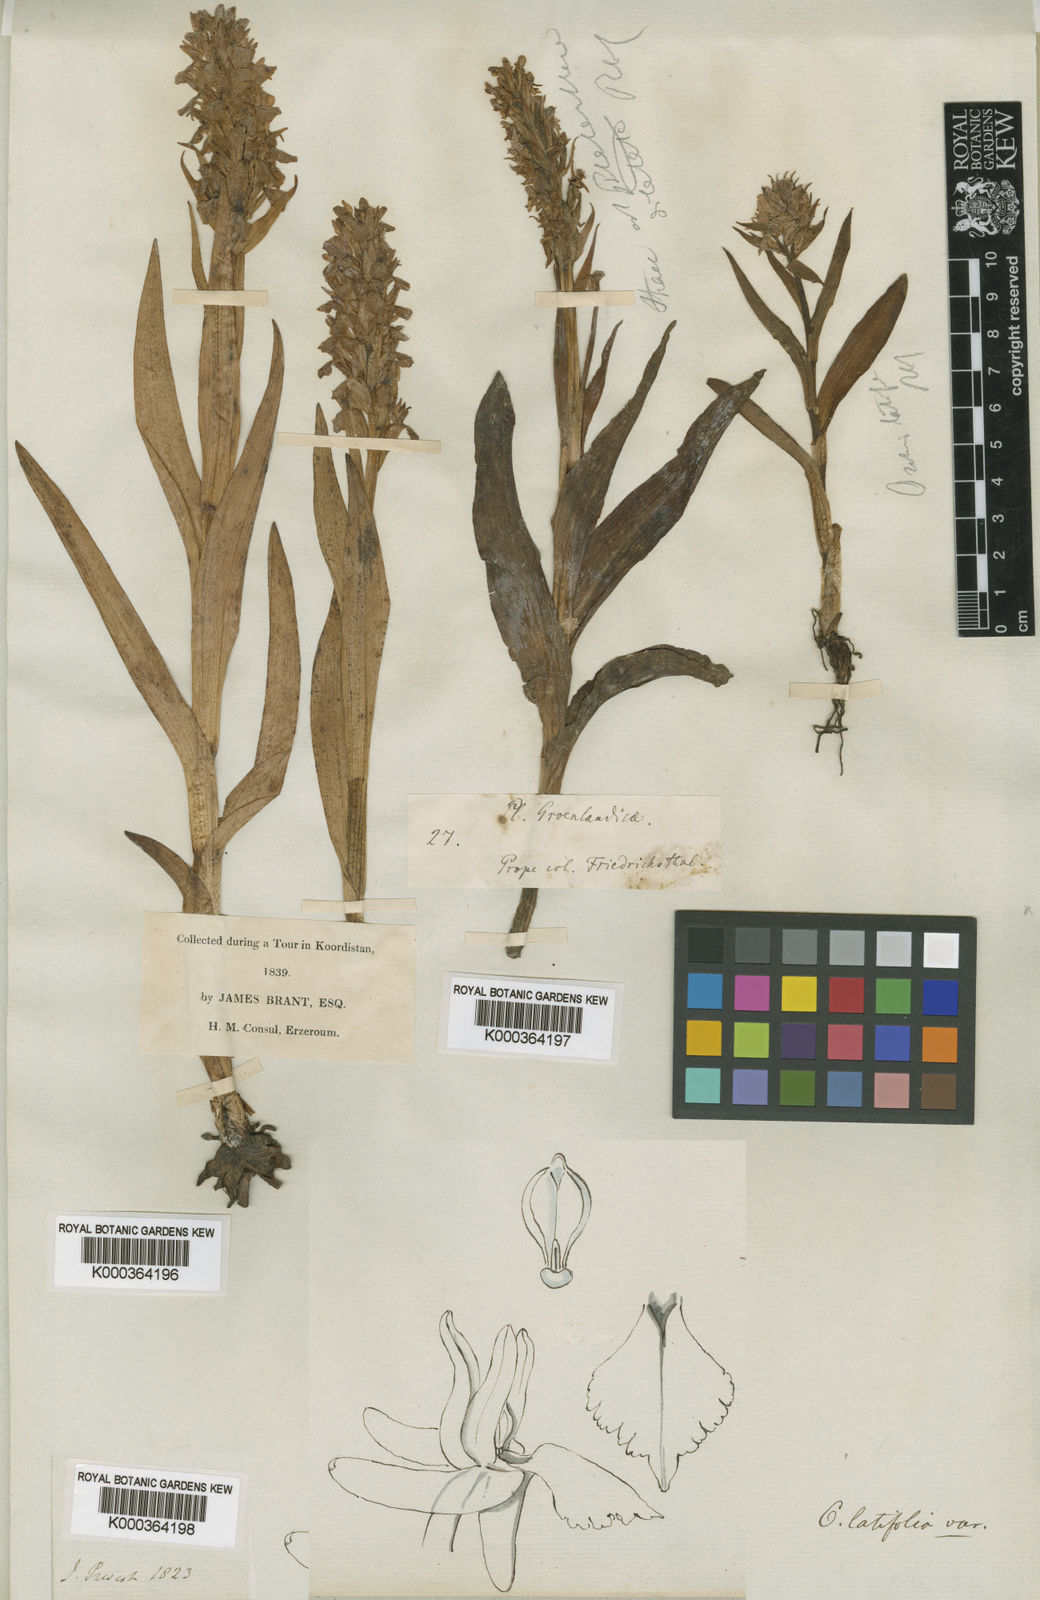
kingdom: Plantae
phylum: Tracheophyta
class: Liliopsida
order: Asparagales
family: Orchidaceae
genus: Dactylorhiza
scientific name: Dactylorhiza
